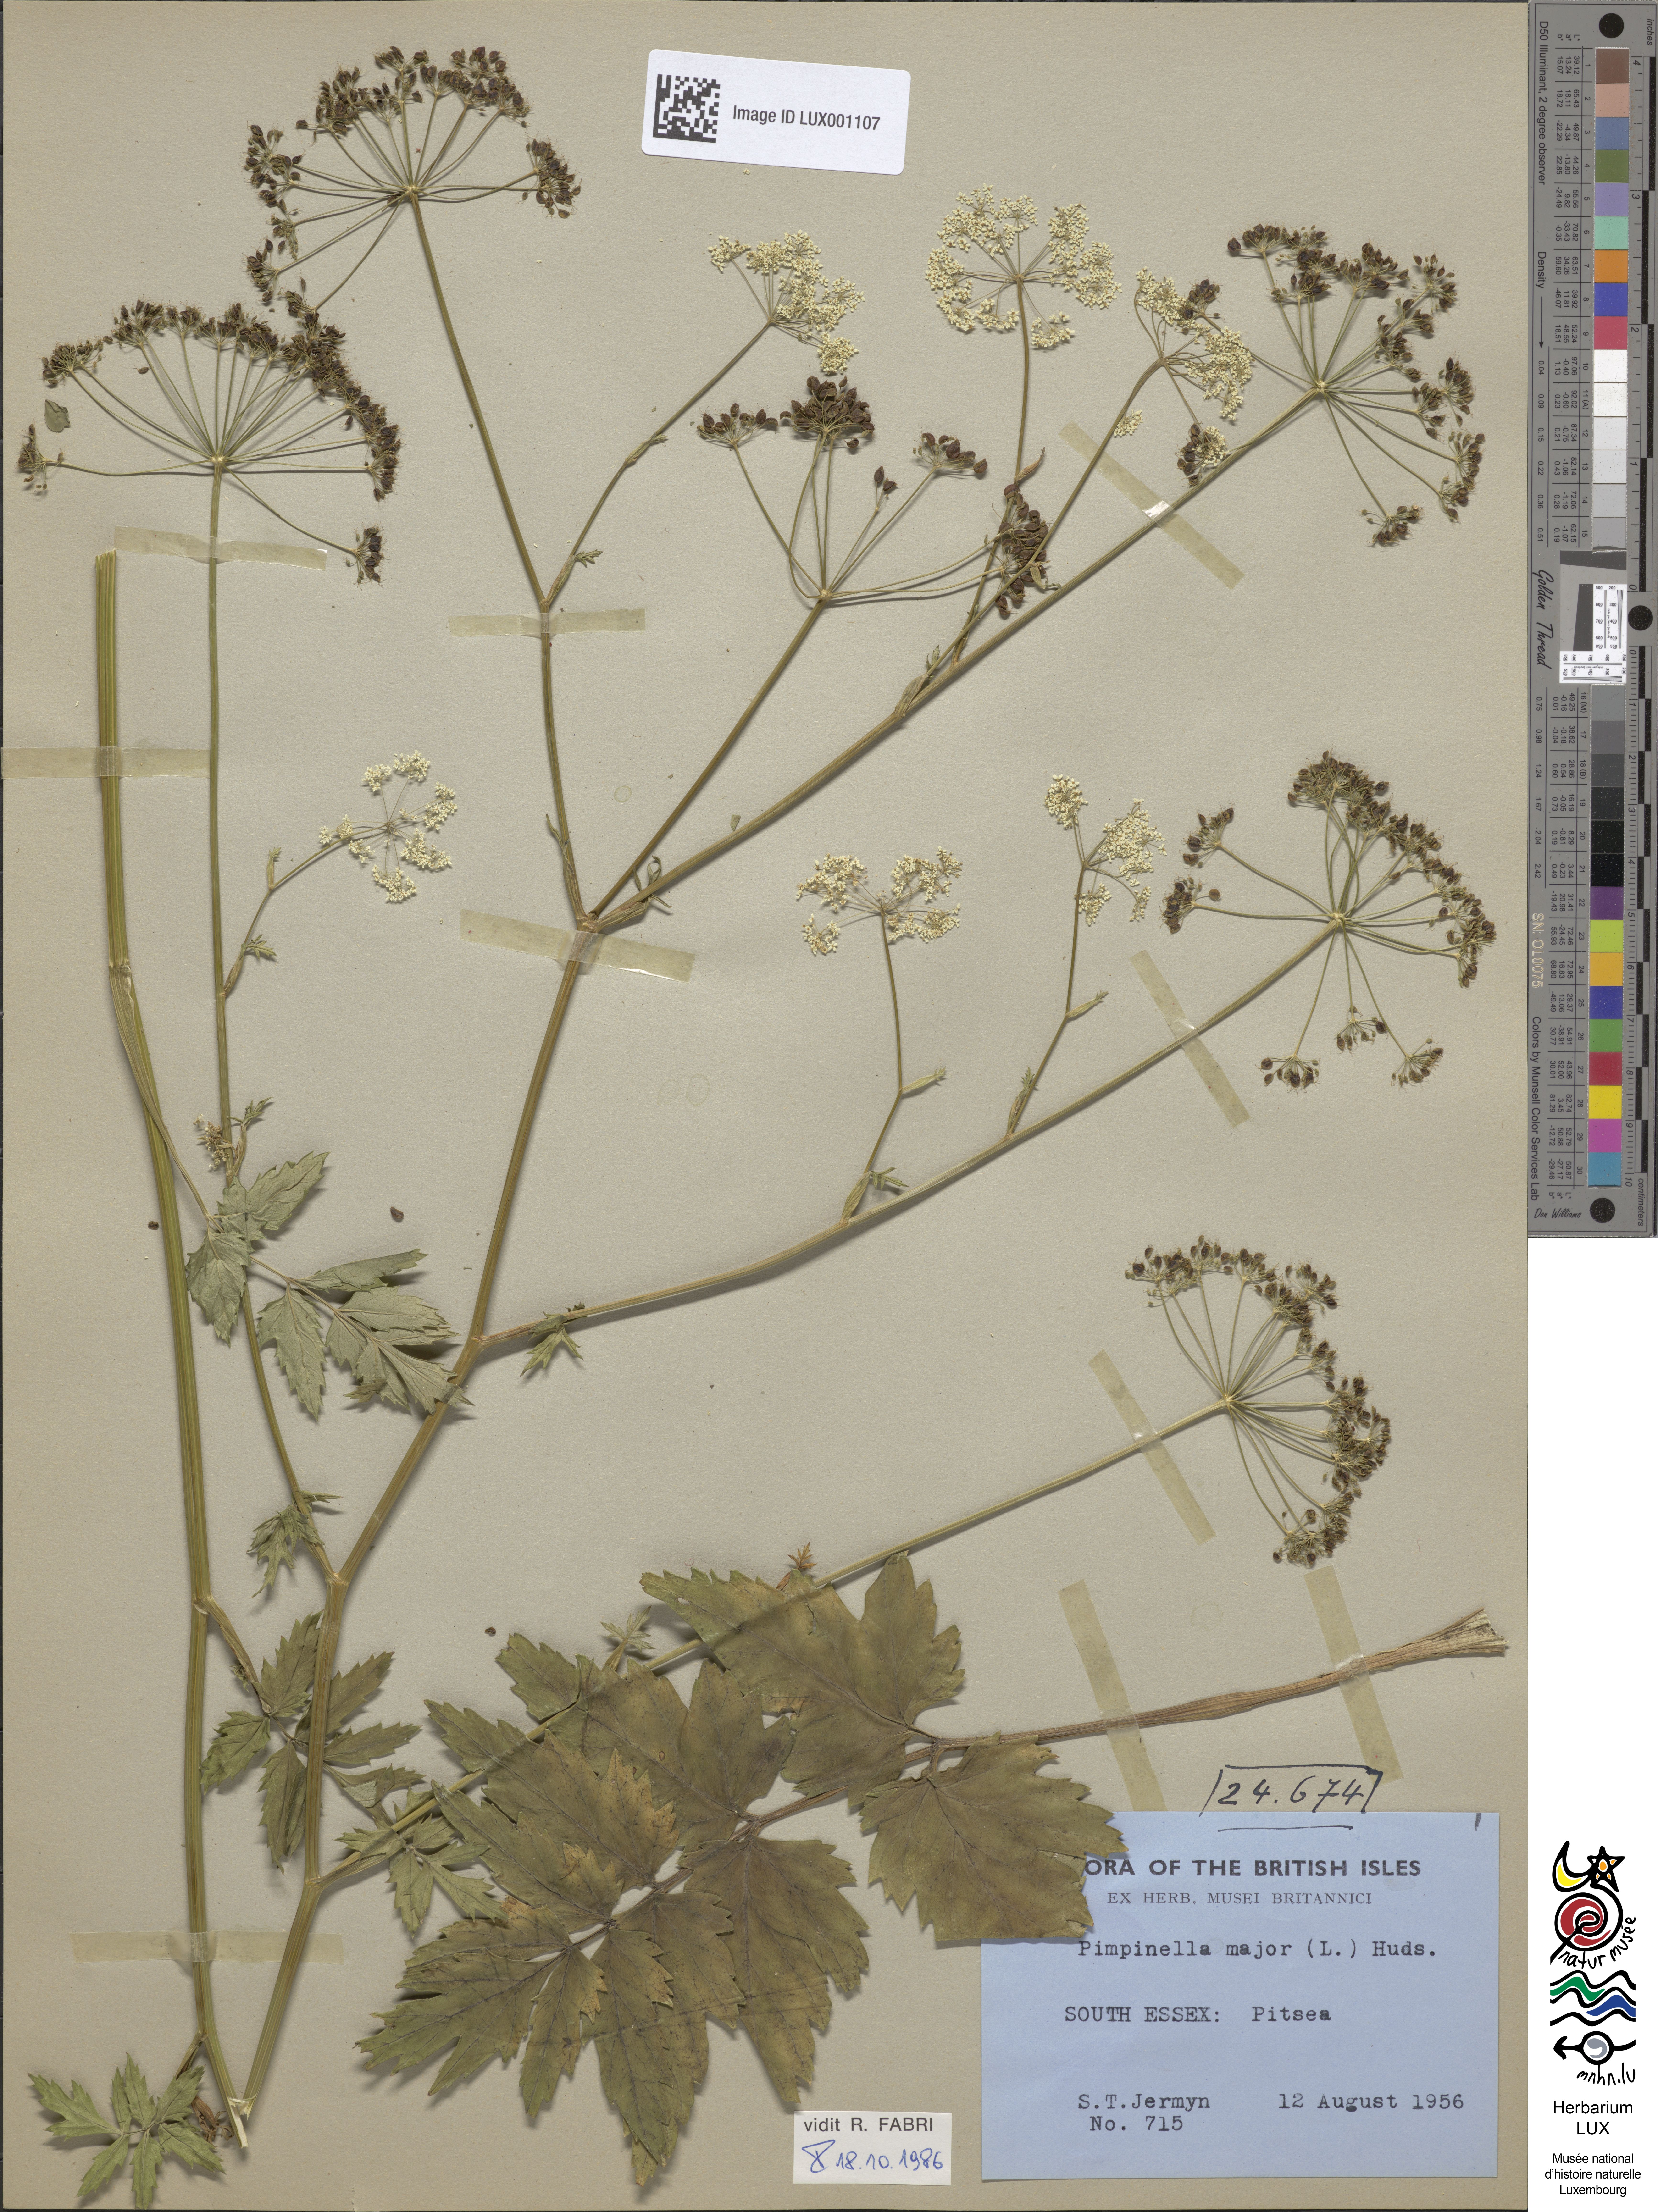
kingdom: Plantae
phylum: Tracheophyta
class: Magnoliopsida
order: Apiales
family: Apiaceae
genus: Pimpinella
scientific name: Pimpinella major
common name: Greater burnet-saxifrage
